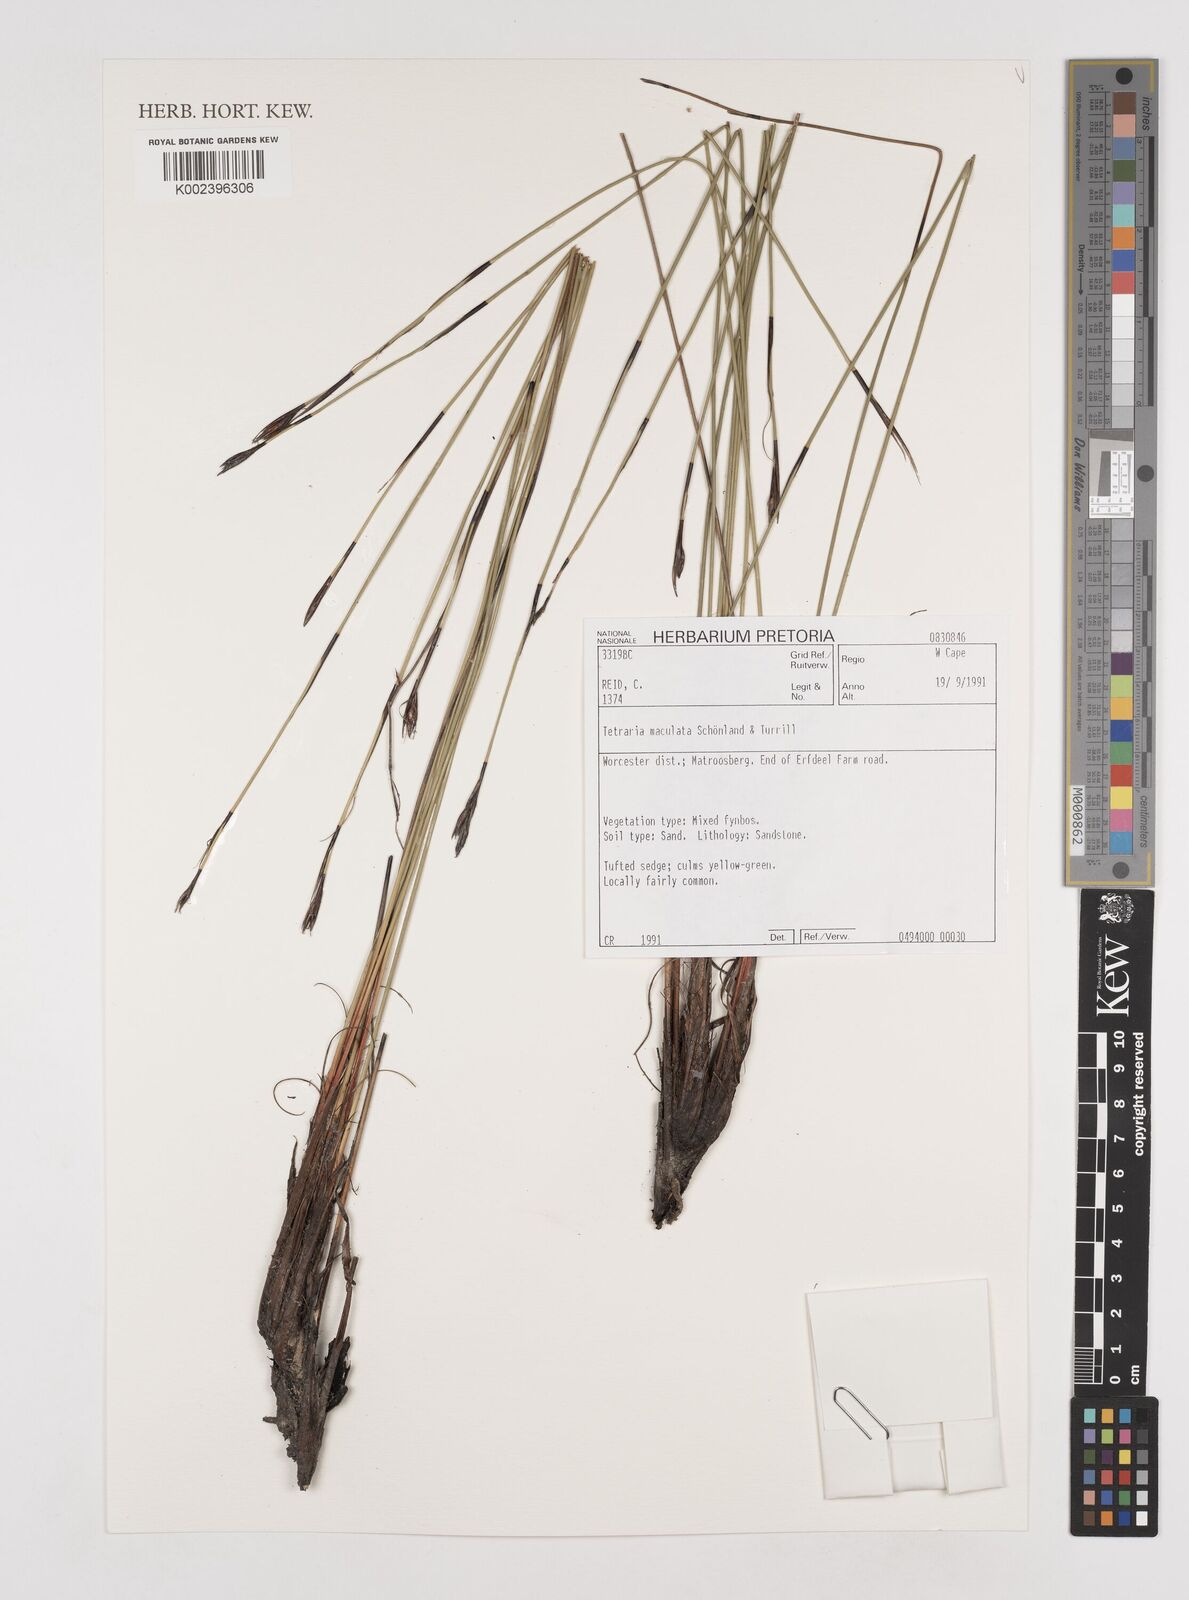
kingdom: Plantae
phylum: Tracheophyta
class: Liliopsida
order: Poales
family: Cyperaceae
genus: Tetraria
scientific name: Tetraria maculata
